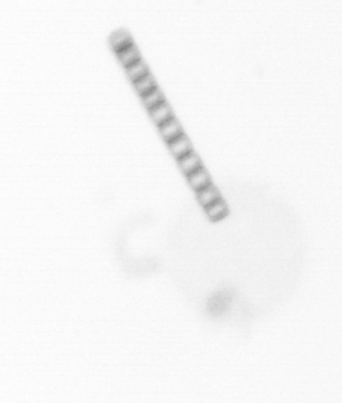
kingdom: Chromista
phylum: Ochrophyta
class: Bacillariophyceae
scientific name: Bacillariophyceae
